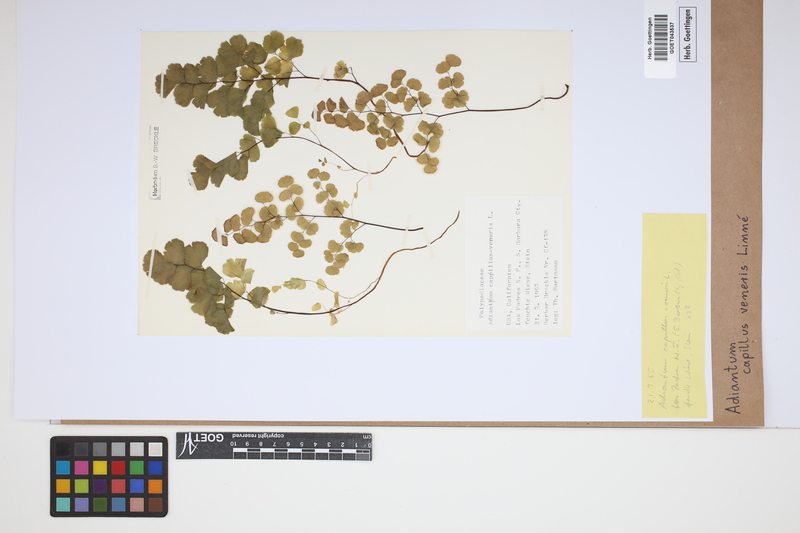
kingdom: Plantae
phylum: Tracheophyta
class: Polypodiopsida
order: Polypodiales
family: Pteridaceae
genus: Adiantum
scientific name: Adiantum capillus-veneris
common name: Maidenhair fern
